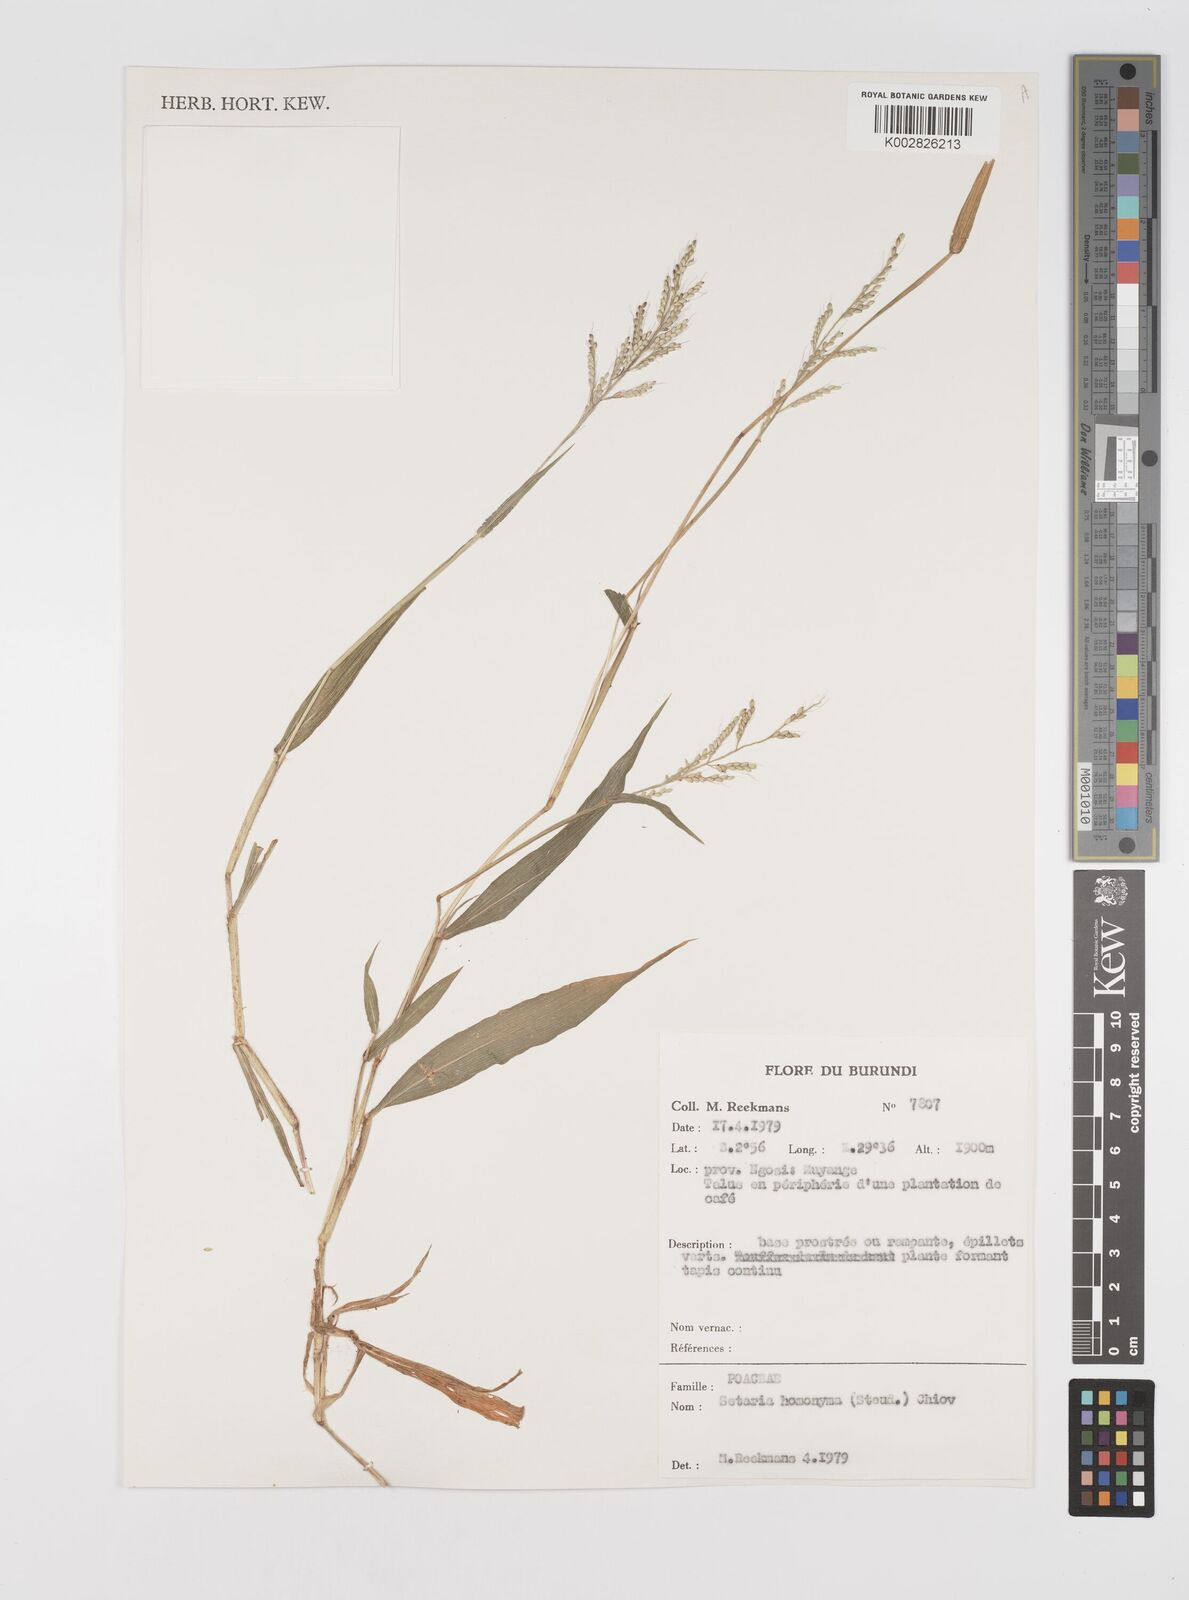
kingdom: Plantae
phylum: Tracheophyta
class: Liliopsida
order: Poales
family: Poaceae
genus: Setaria
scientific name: Setaria homonyma
